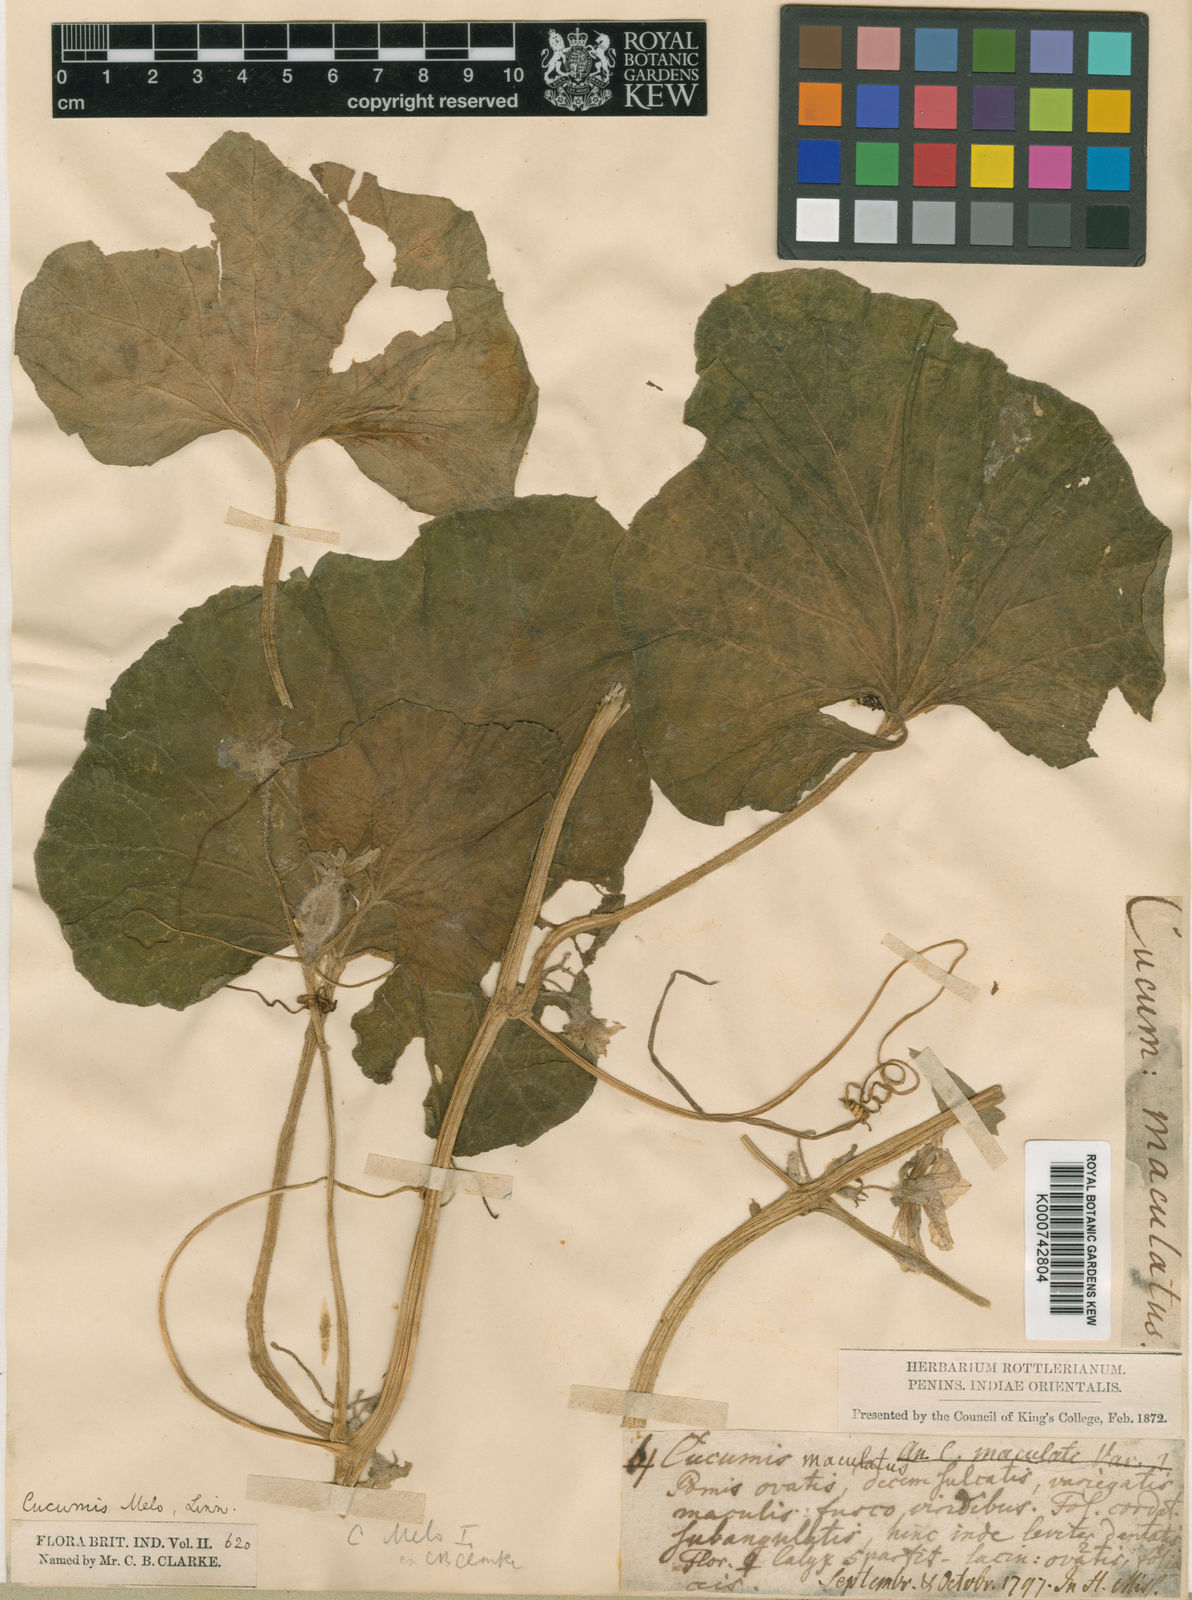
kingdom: Plantae
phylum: Tracheophyta
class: Magnoliopsida
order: Cucurbitales
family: Cucurbitaceae
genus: Cucumis
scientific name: Cucumis
